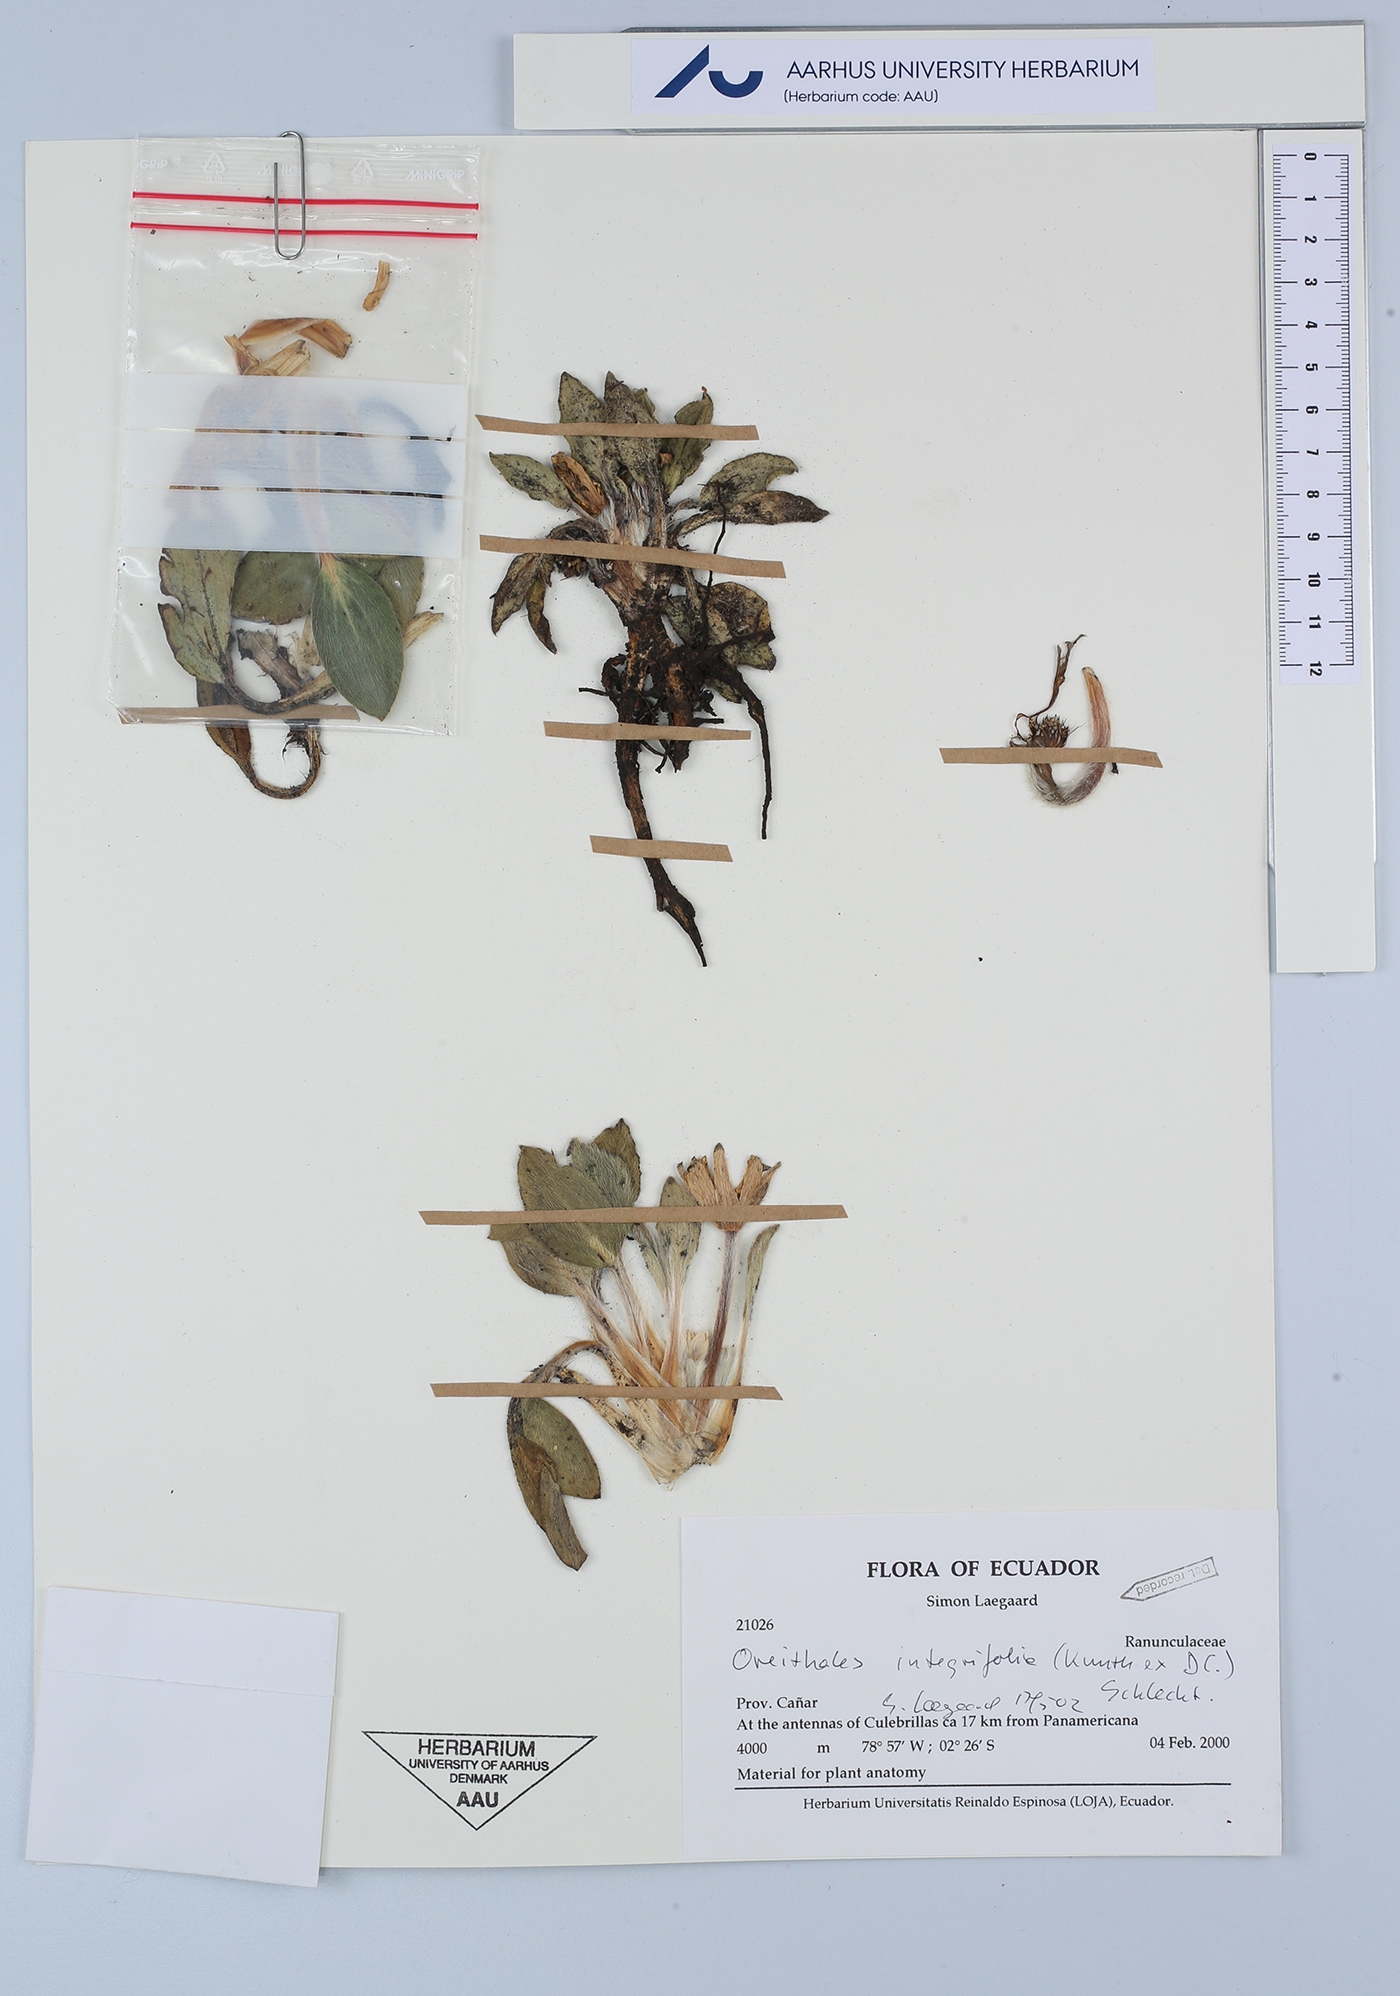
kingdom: Plantae
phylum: Tracheophyta
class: Magnoliopsida
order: Ranunculales
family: Ranunculaceae
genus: Knowltonia
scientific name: Knowltonia integrifolia
